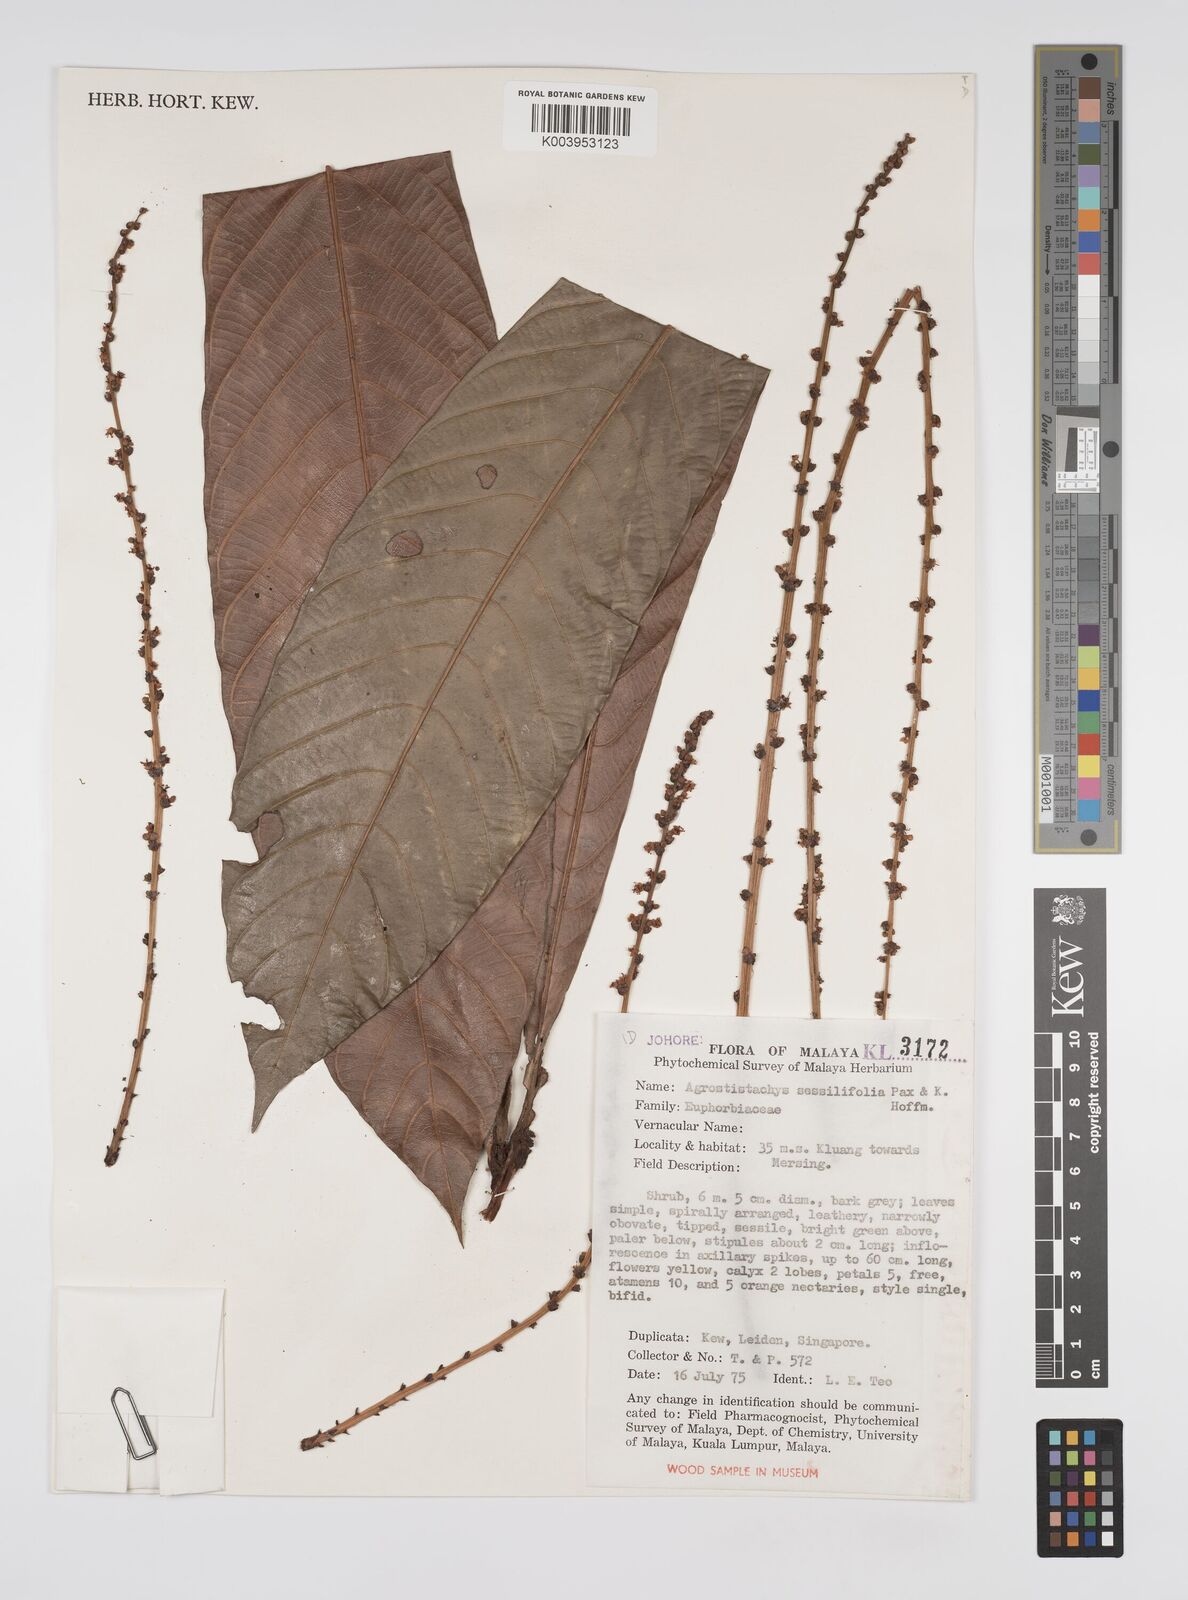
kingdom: Plantae
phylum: Tracheophyta
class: Magnoliopsida
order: Malpighiales
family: Euphorbiaceae
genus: Agrostistachys
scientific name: Agrostistachys sessilifolia
